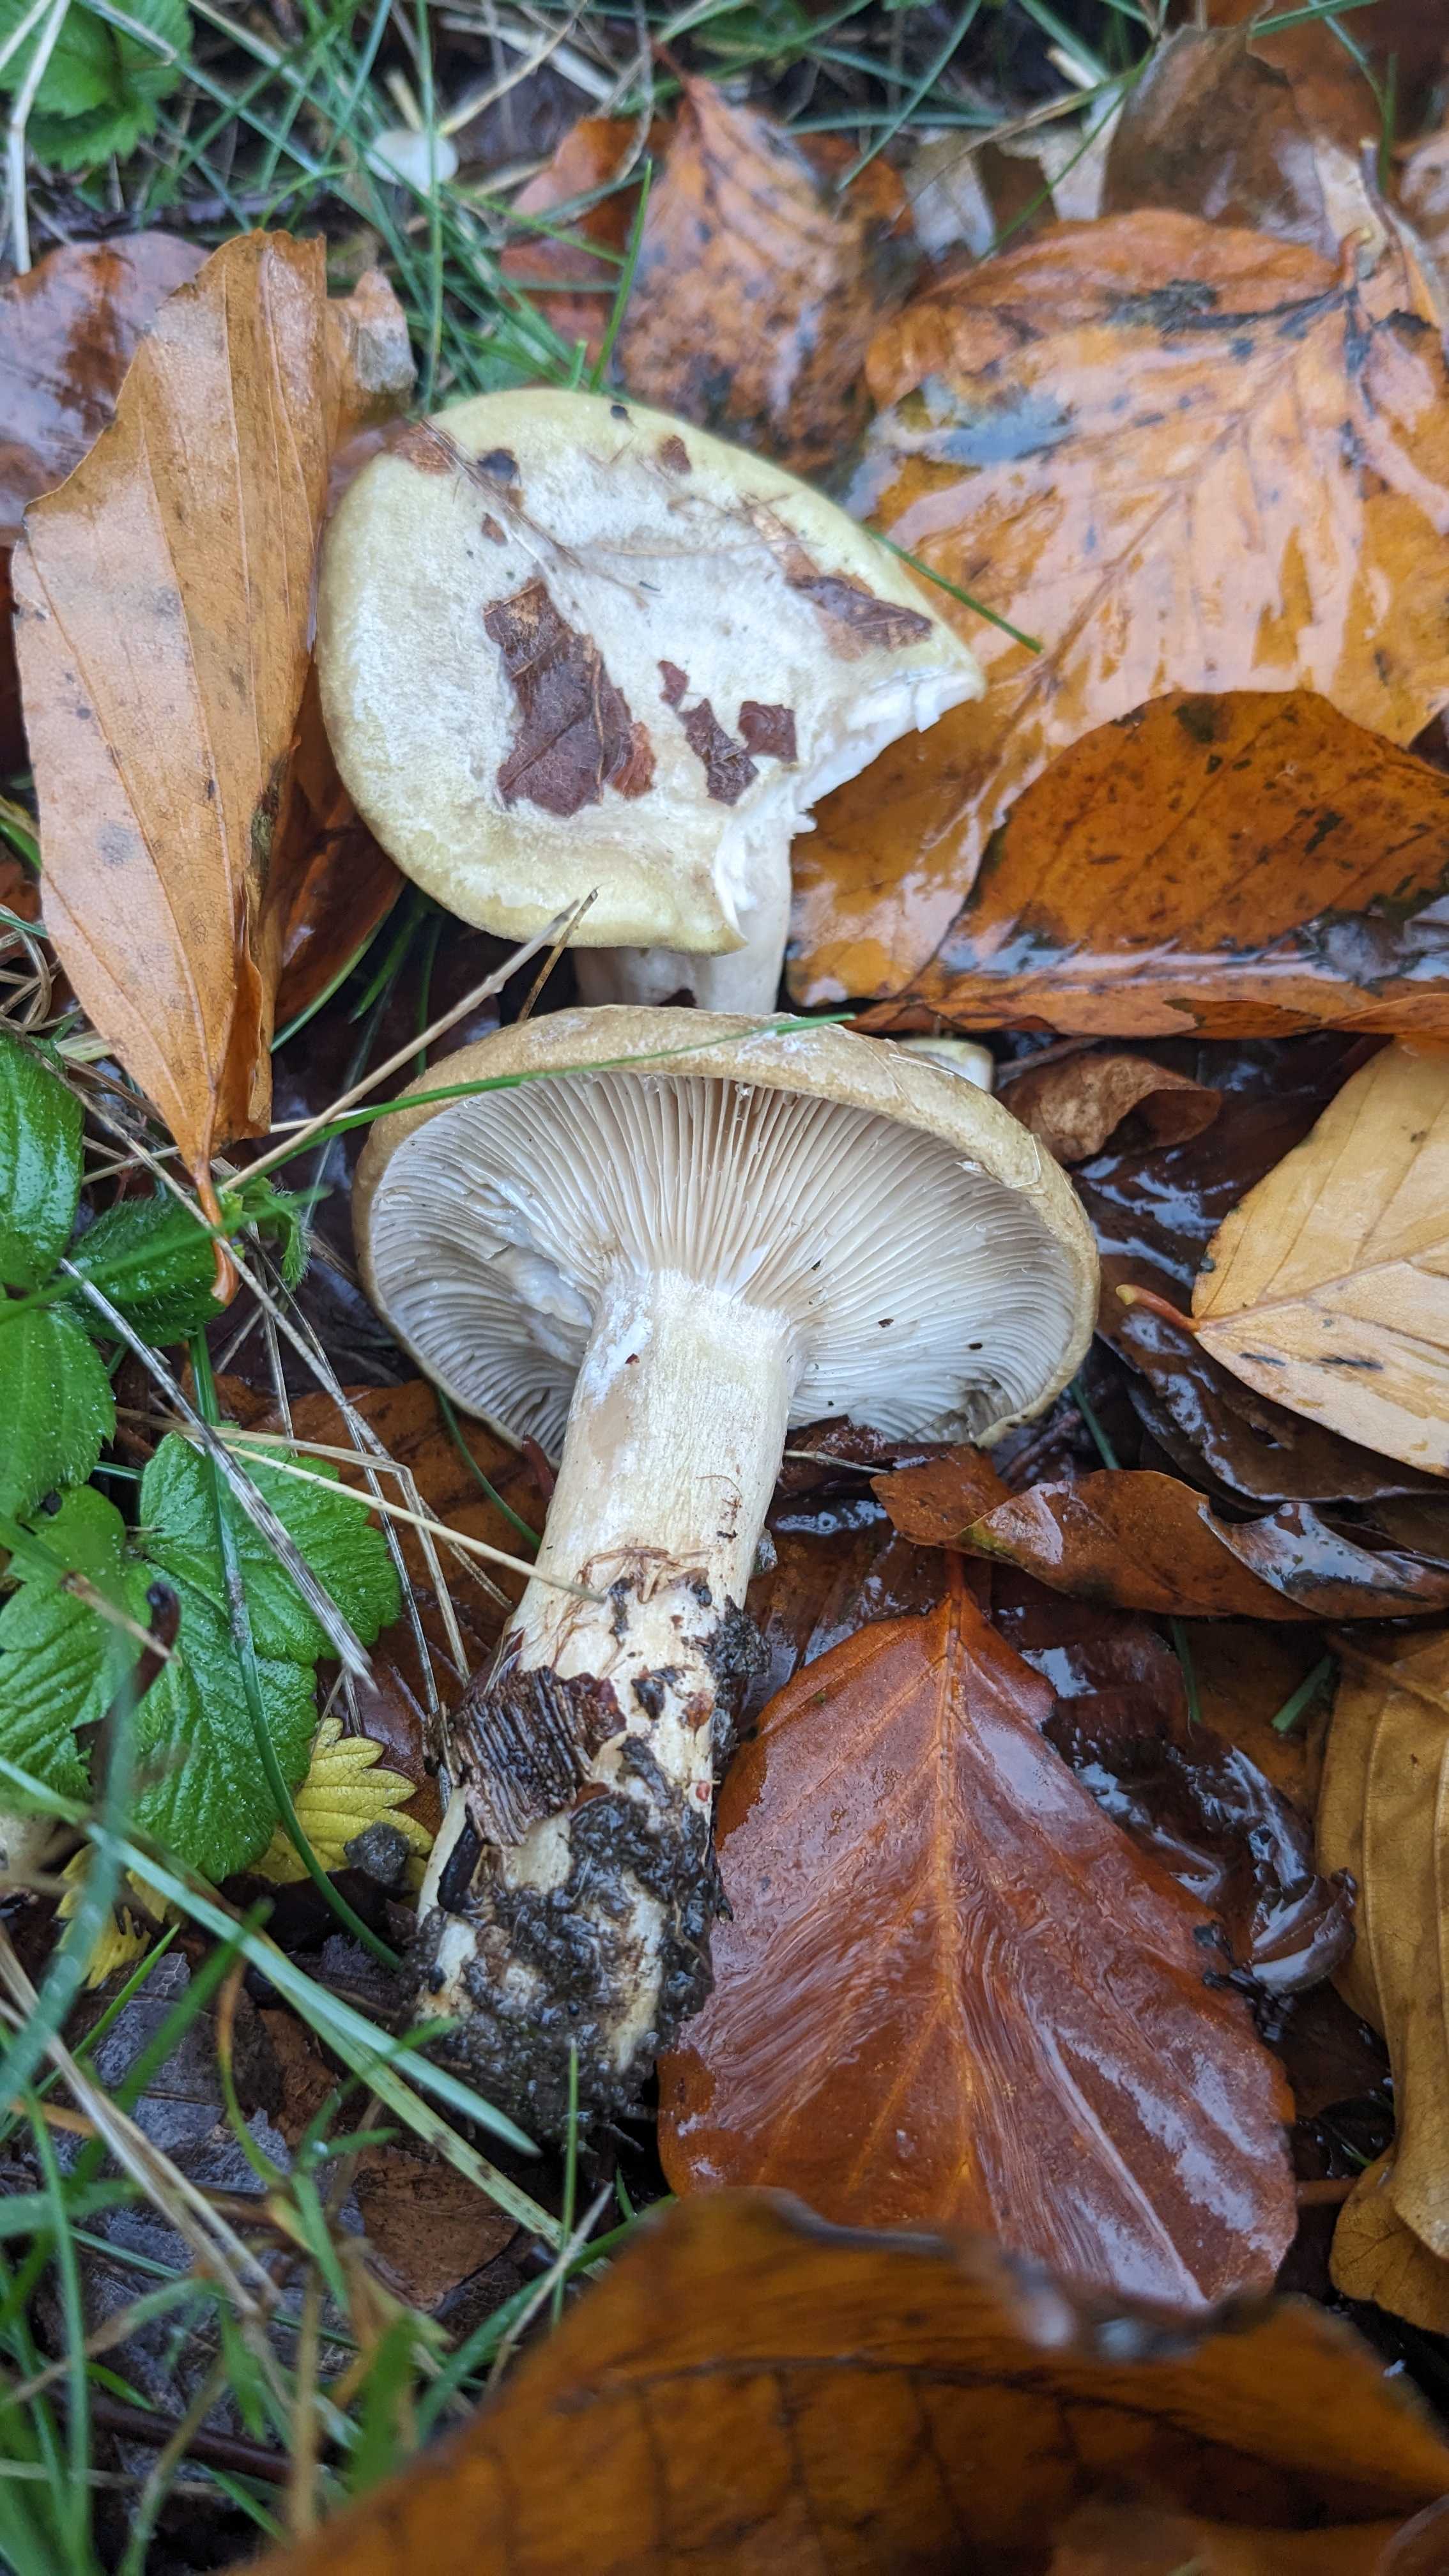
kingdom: Fungi
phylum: Basidiomycota
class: Agaricomycetes
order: Russulales
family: Russulaceae
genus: Lactarius
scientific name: Lactarius blennius
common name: dråbeplettet mælkehat
